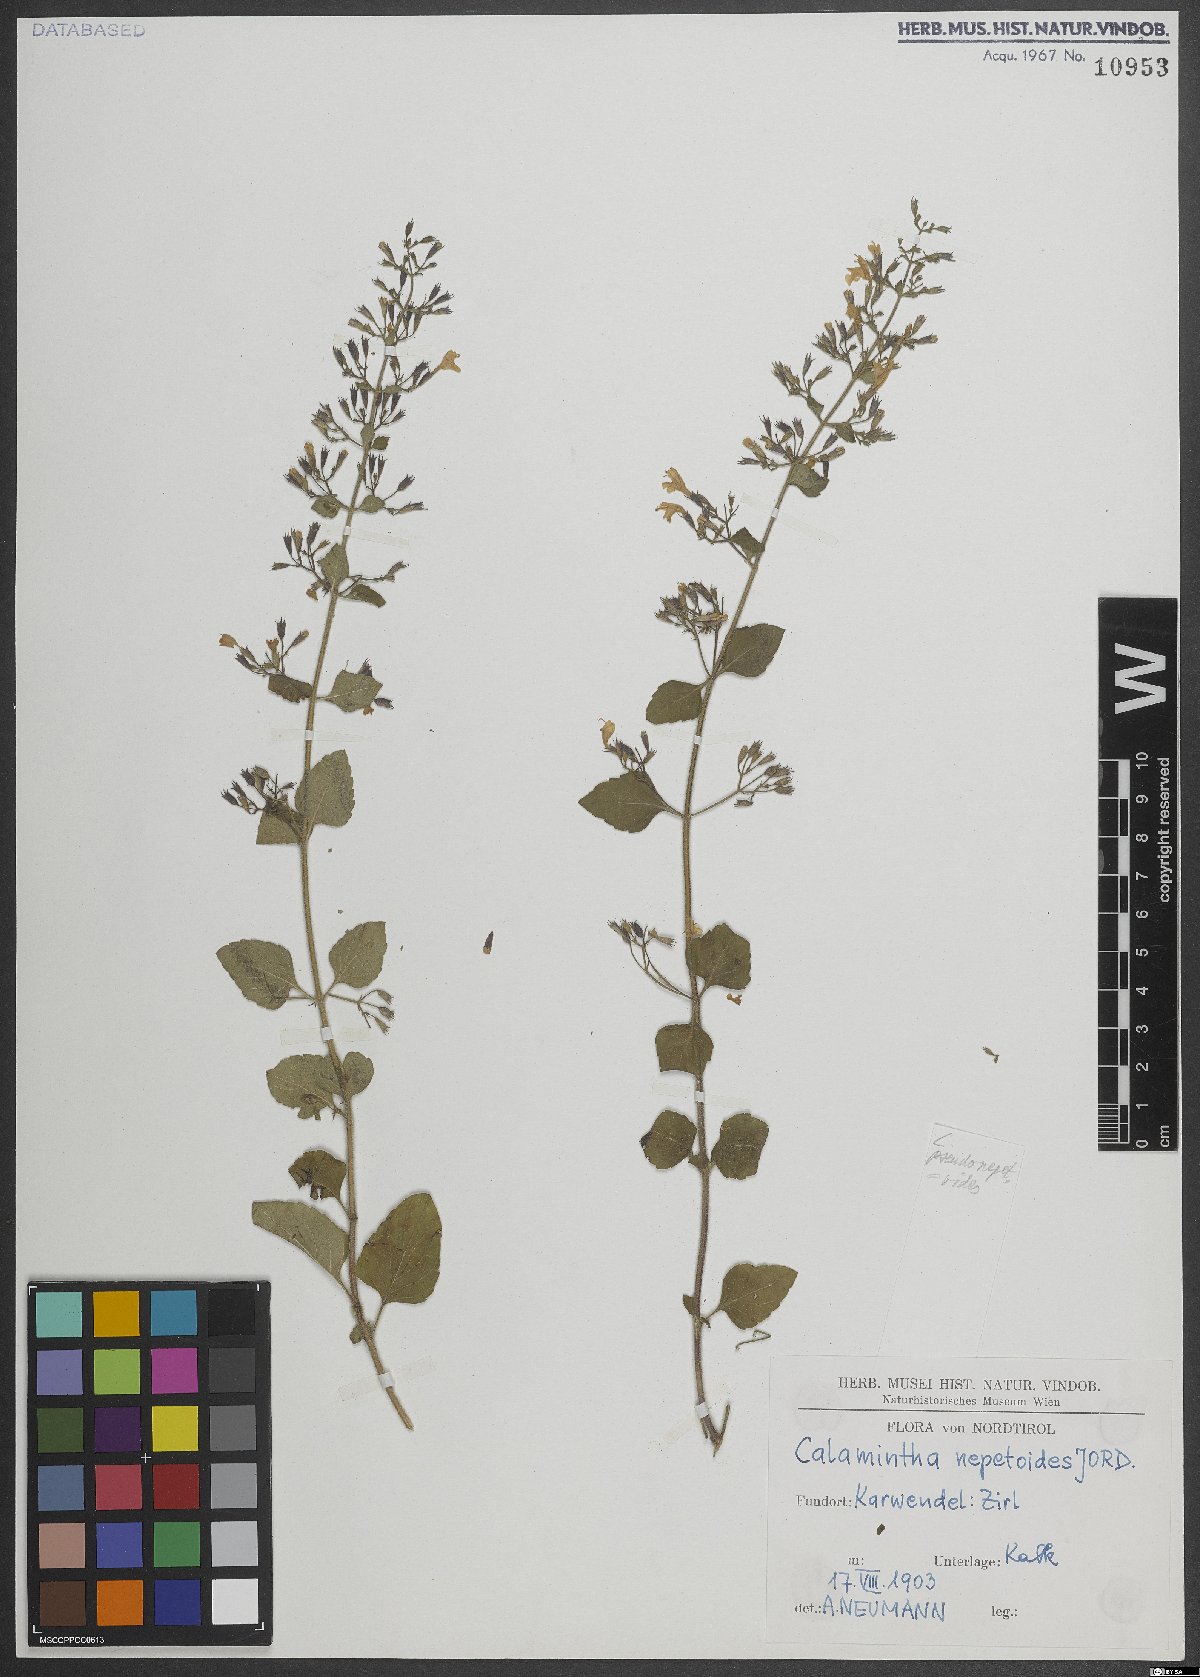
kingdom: Plantae
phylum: Tracheophyta
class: Magnoliopsida
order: Lamiales
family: Lamiaceae
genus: Clinopodium
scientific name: Clinopodium nepeta
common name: Lesser calamint
